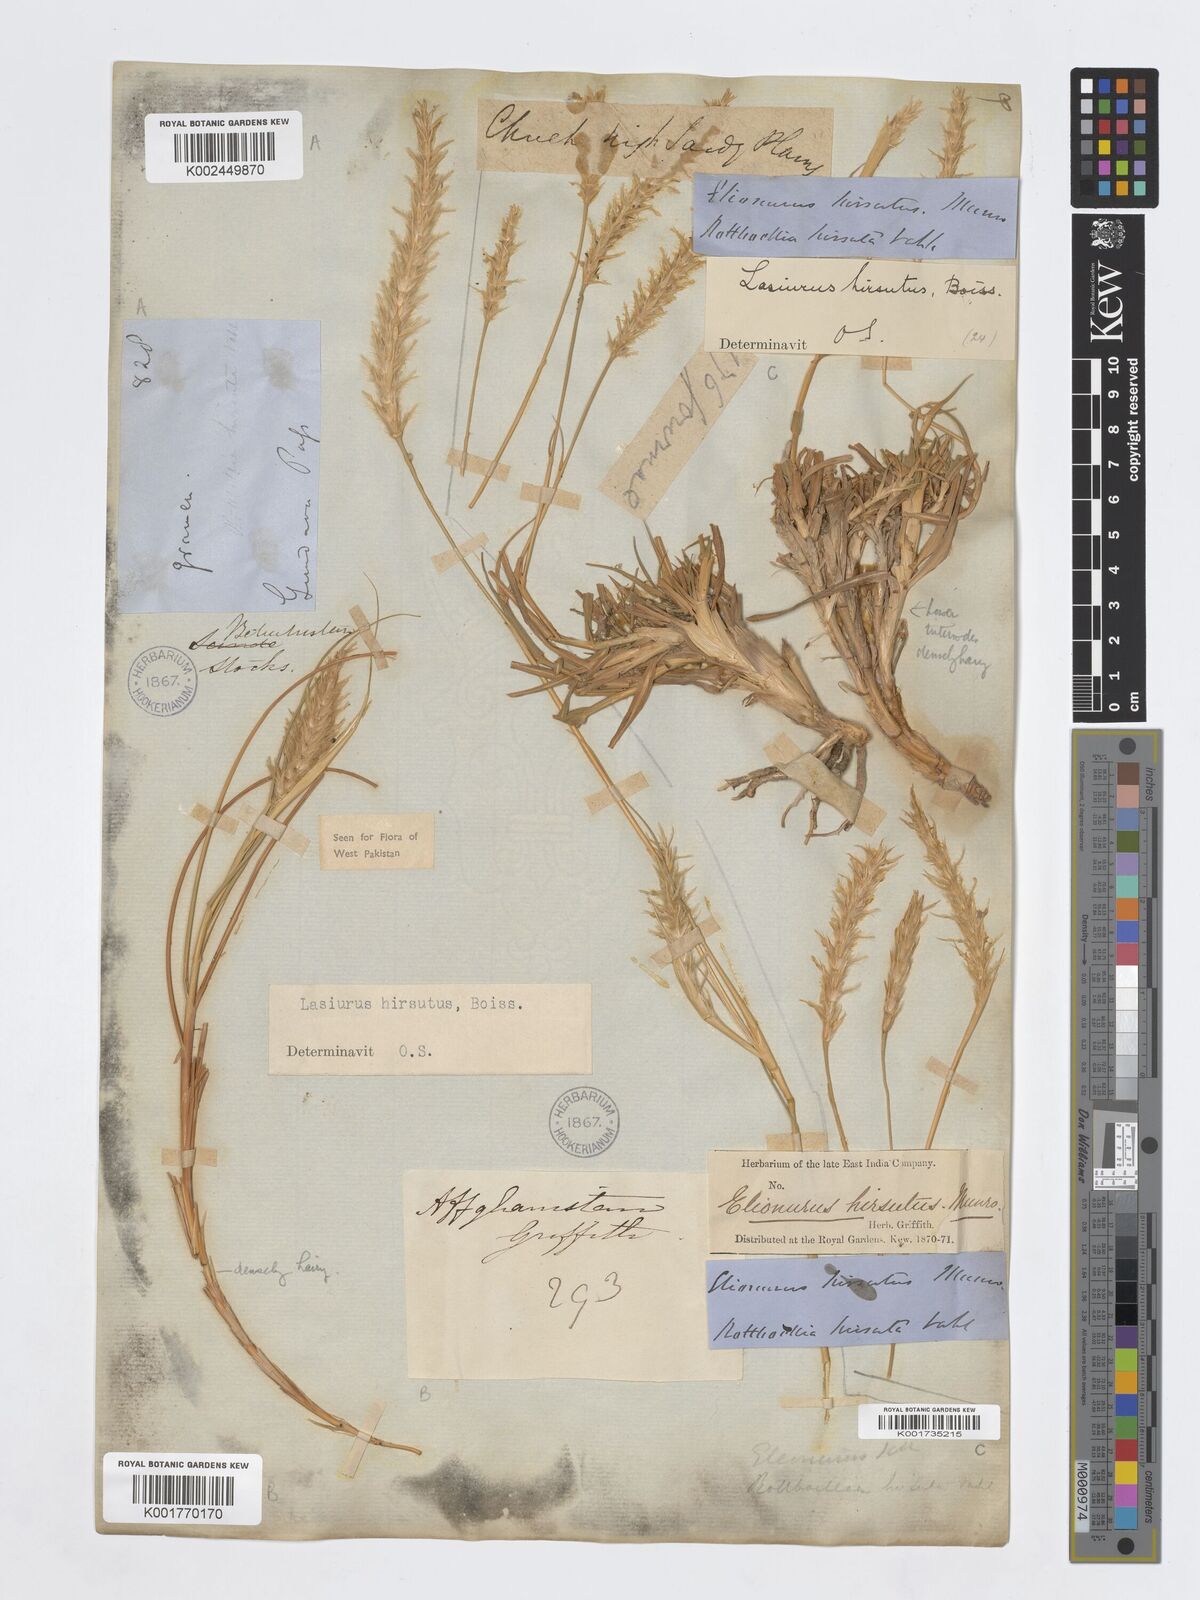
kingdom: Plantae
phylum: Tracheophyta
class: Liliopsida
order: Poales
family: Poaceae
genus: Lasiurus
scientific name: Lasiurus scindicus
